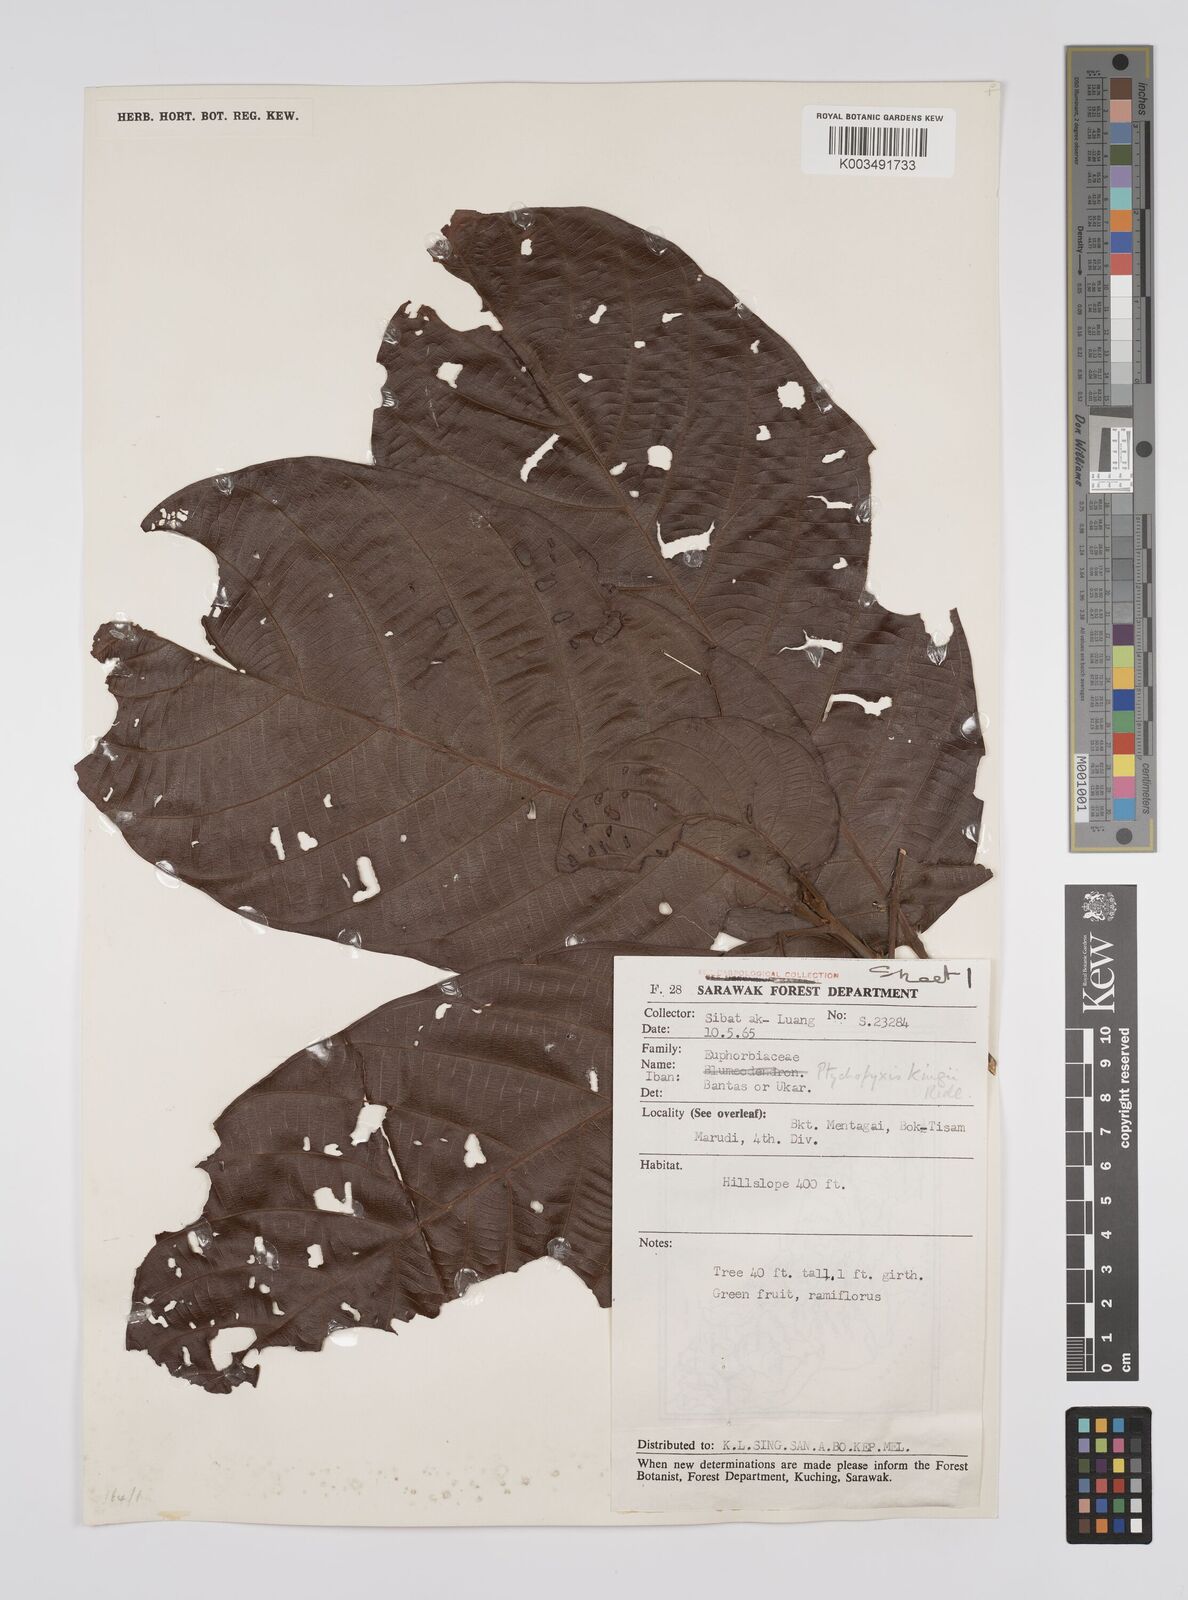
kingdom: Plantae
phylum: Tracheophyta
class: Magnoliopsida
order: Malpighiales
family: Euphorbiaceae
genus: Ptychopyxis
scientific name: Ptychopyxis kingii
